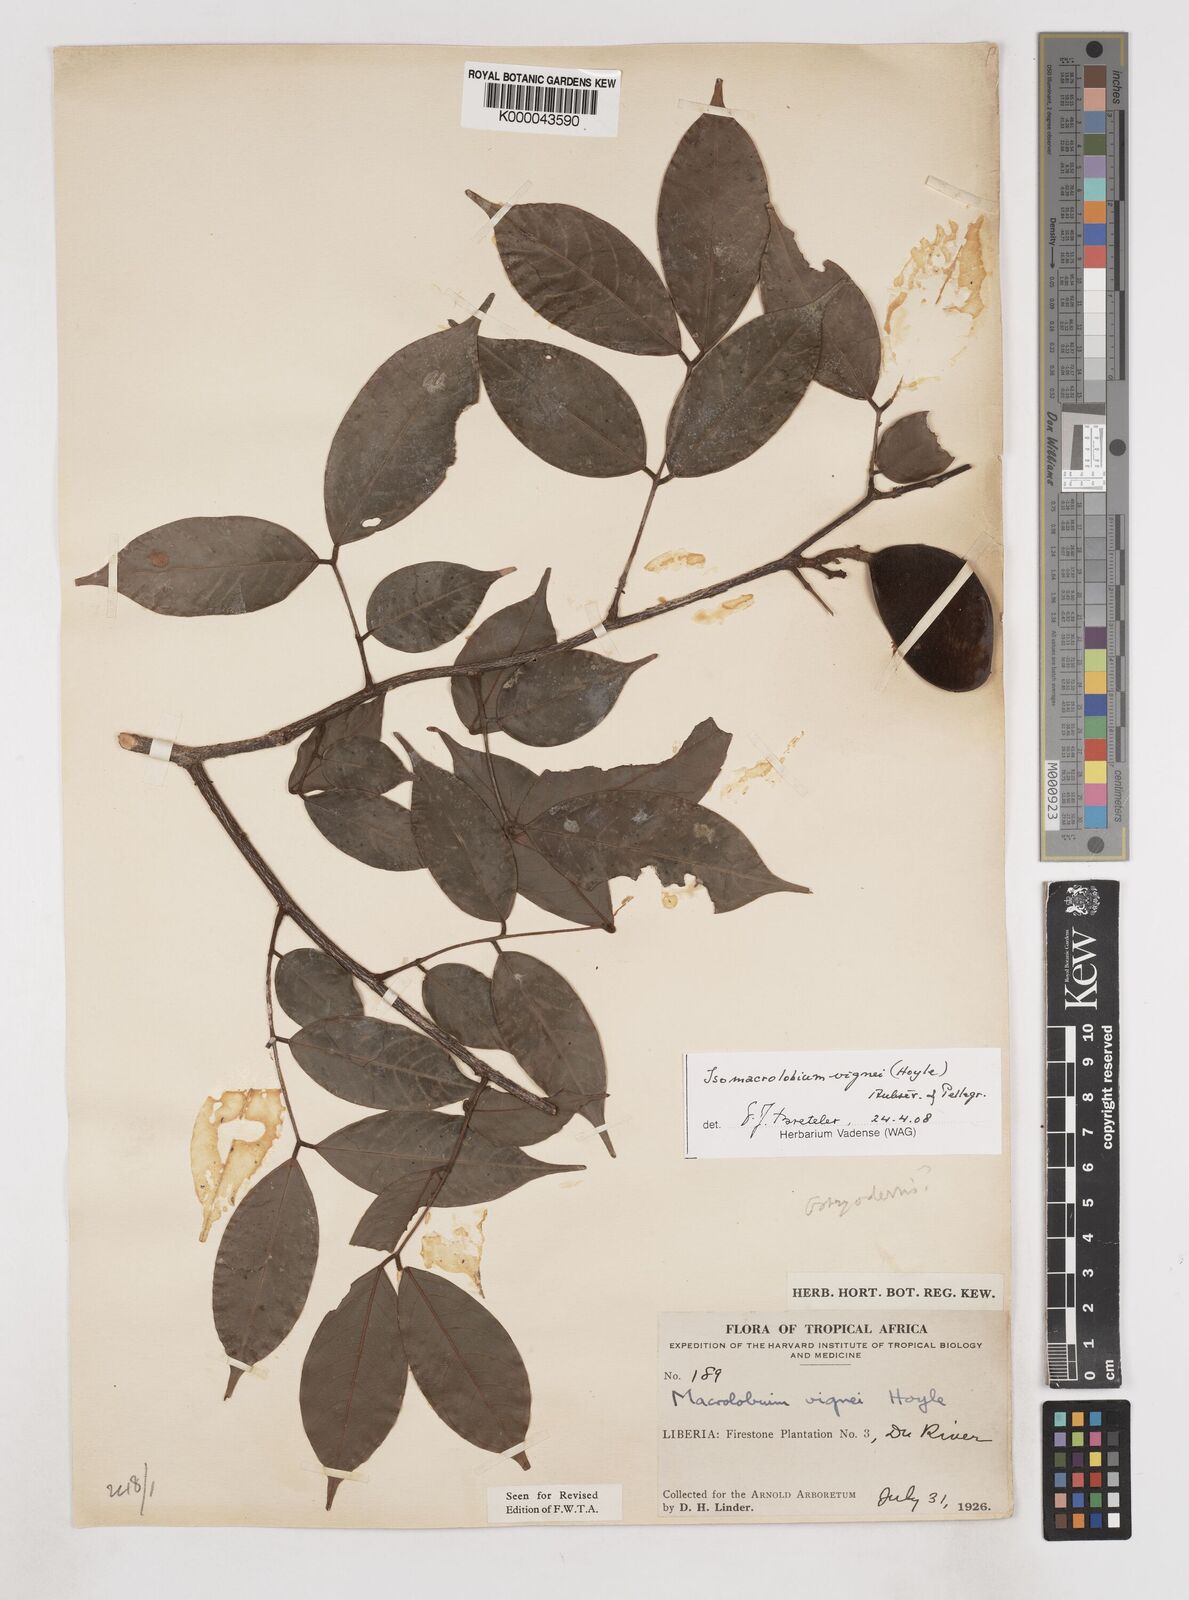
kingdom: Plantae
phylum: Tracheophyta
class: Magnoliopsida
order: Fabales
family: Fabaceae
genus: Englerodendron
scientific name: Englerodendron vignei
